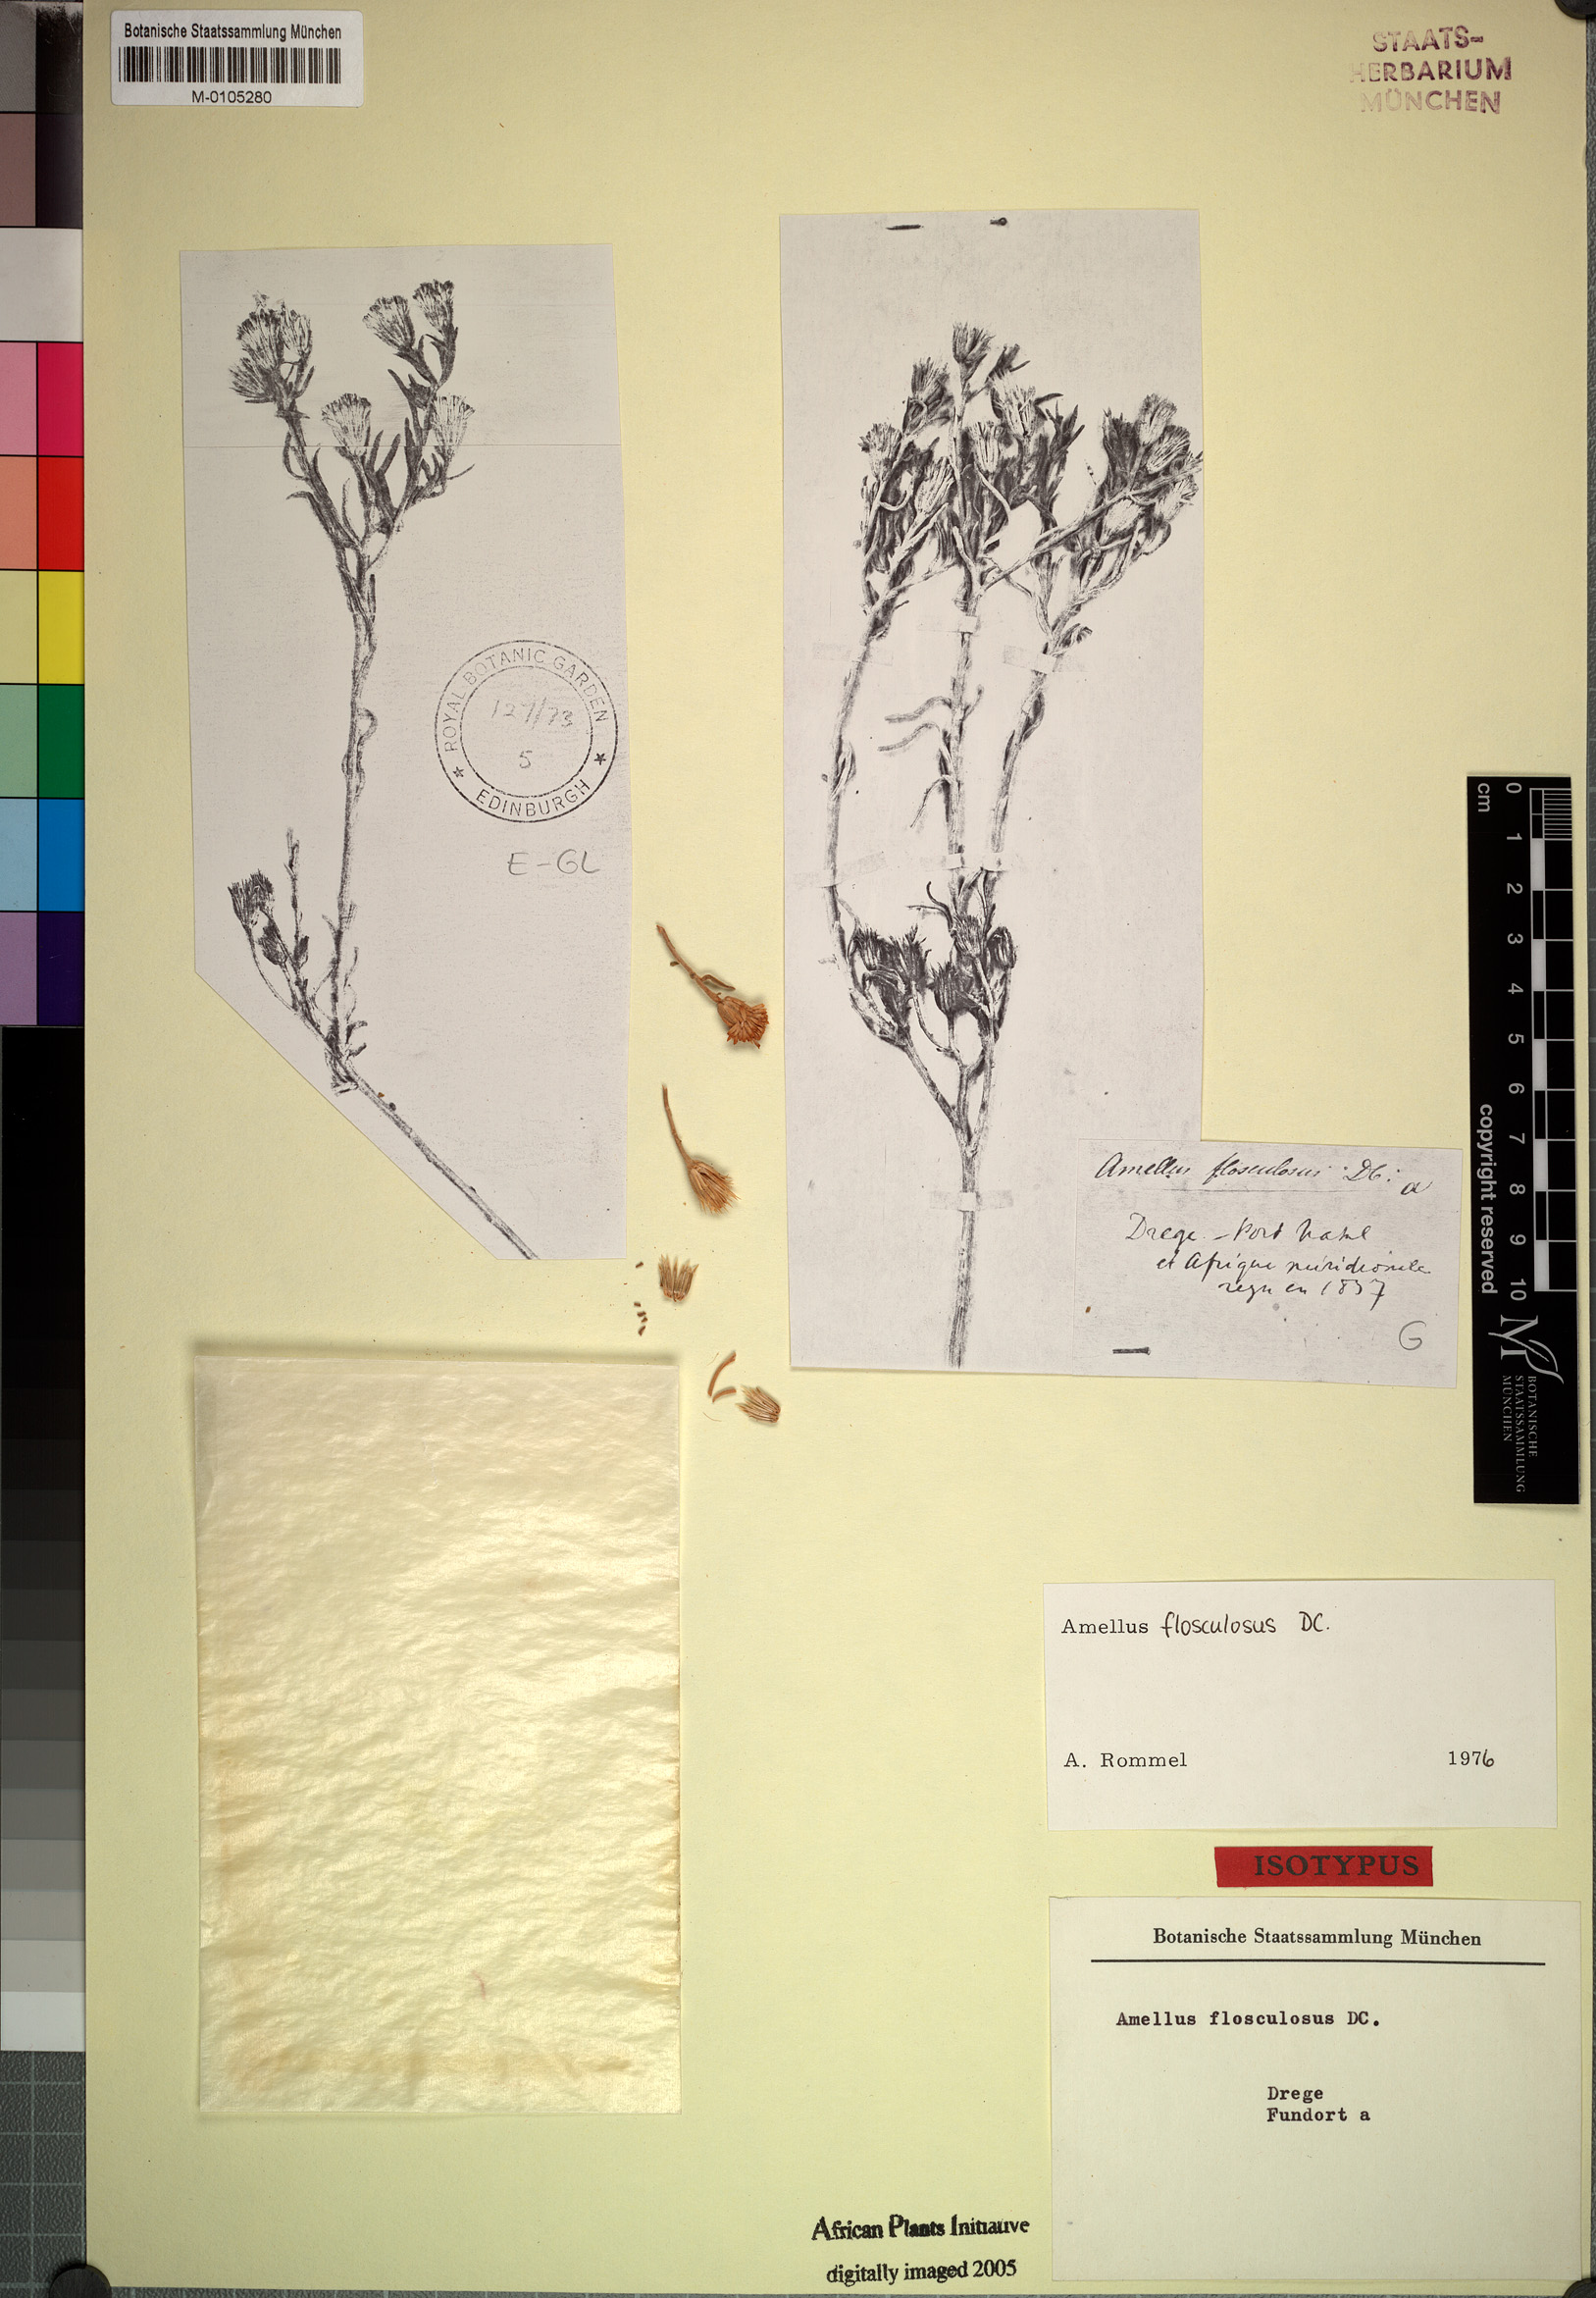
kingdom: Plantae
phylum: Tracheophyta
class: Magnoliopsida
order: Asterales
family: Asteraceae
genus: Amellus
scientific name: Amellus flosculosus
